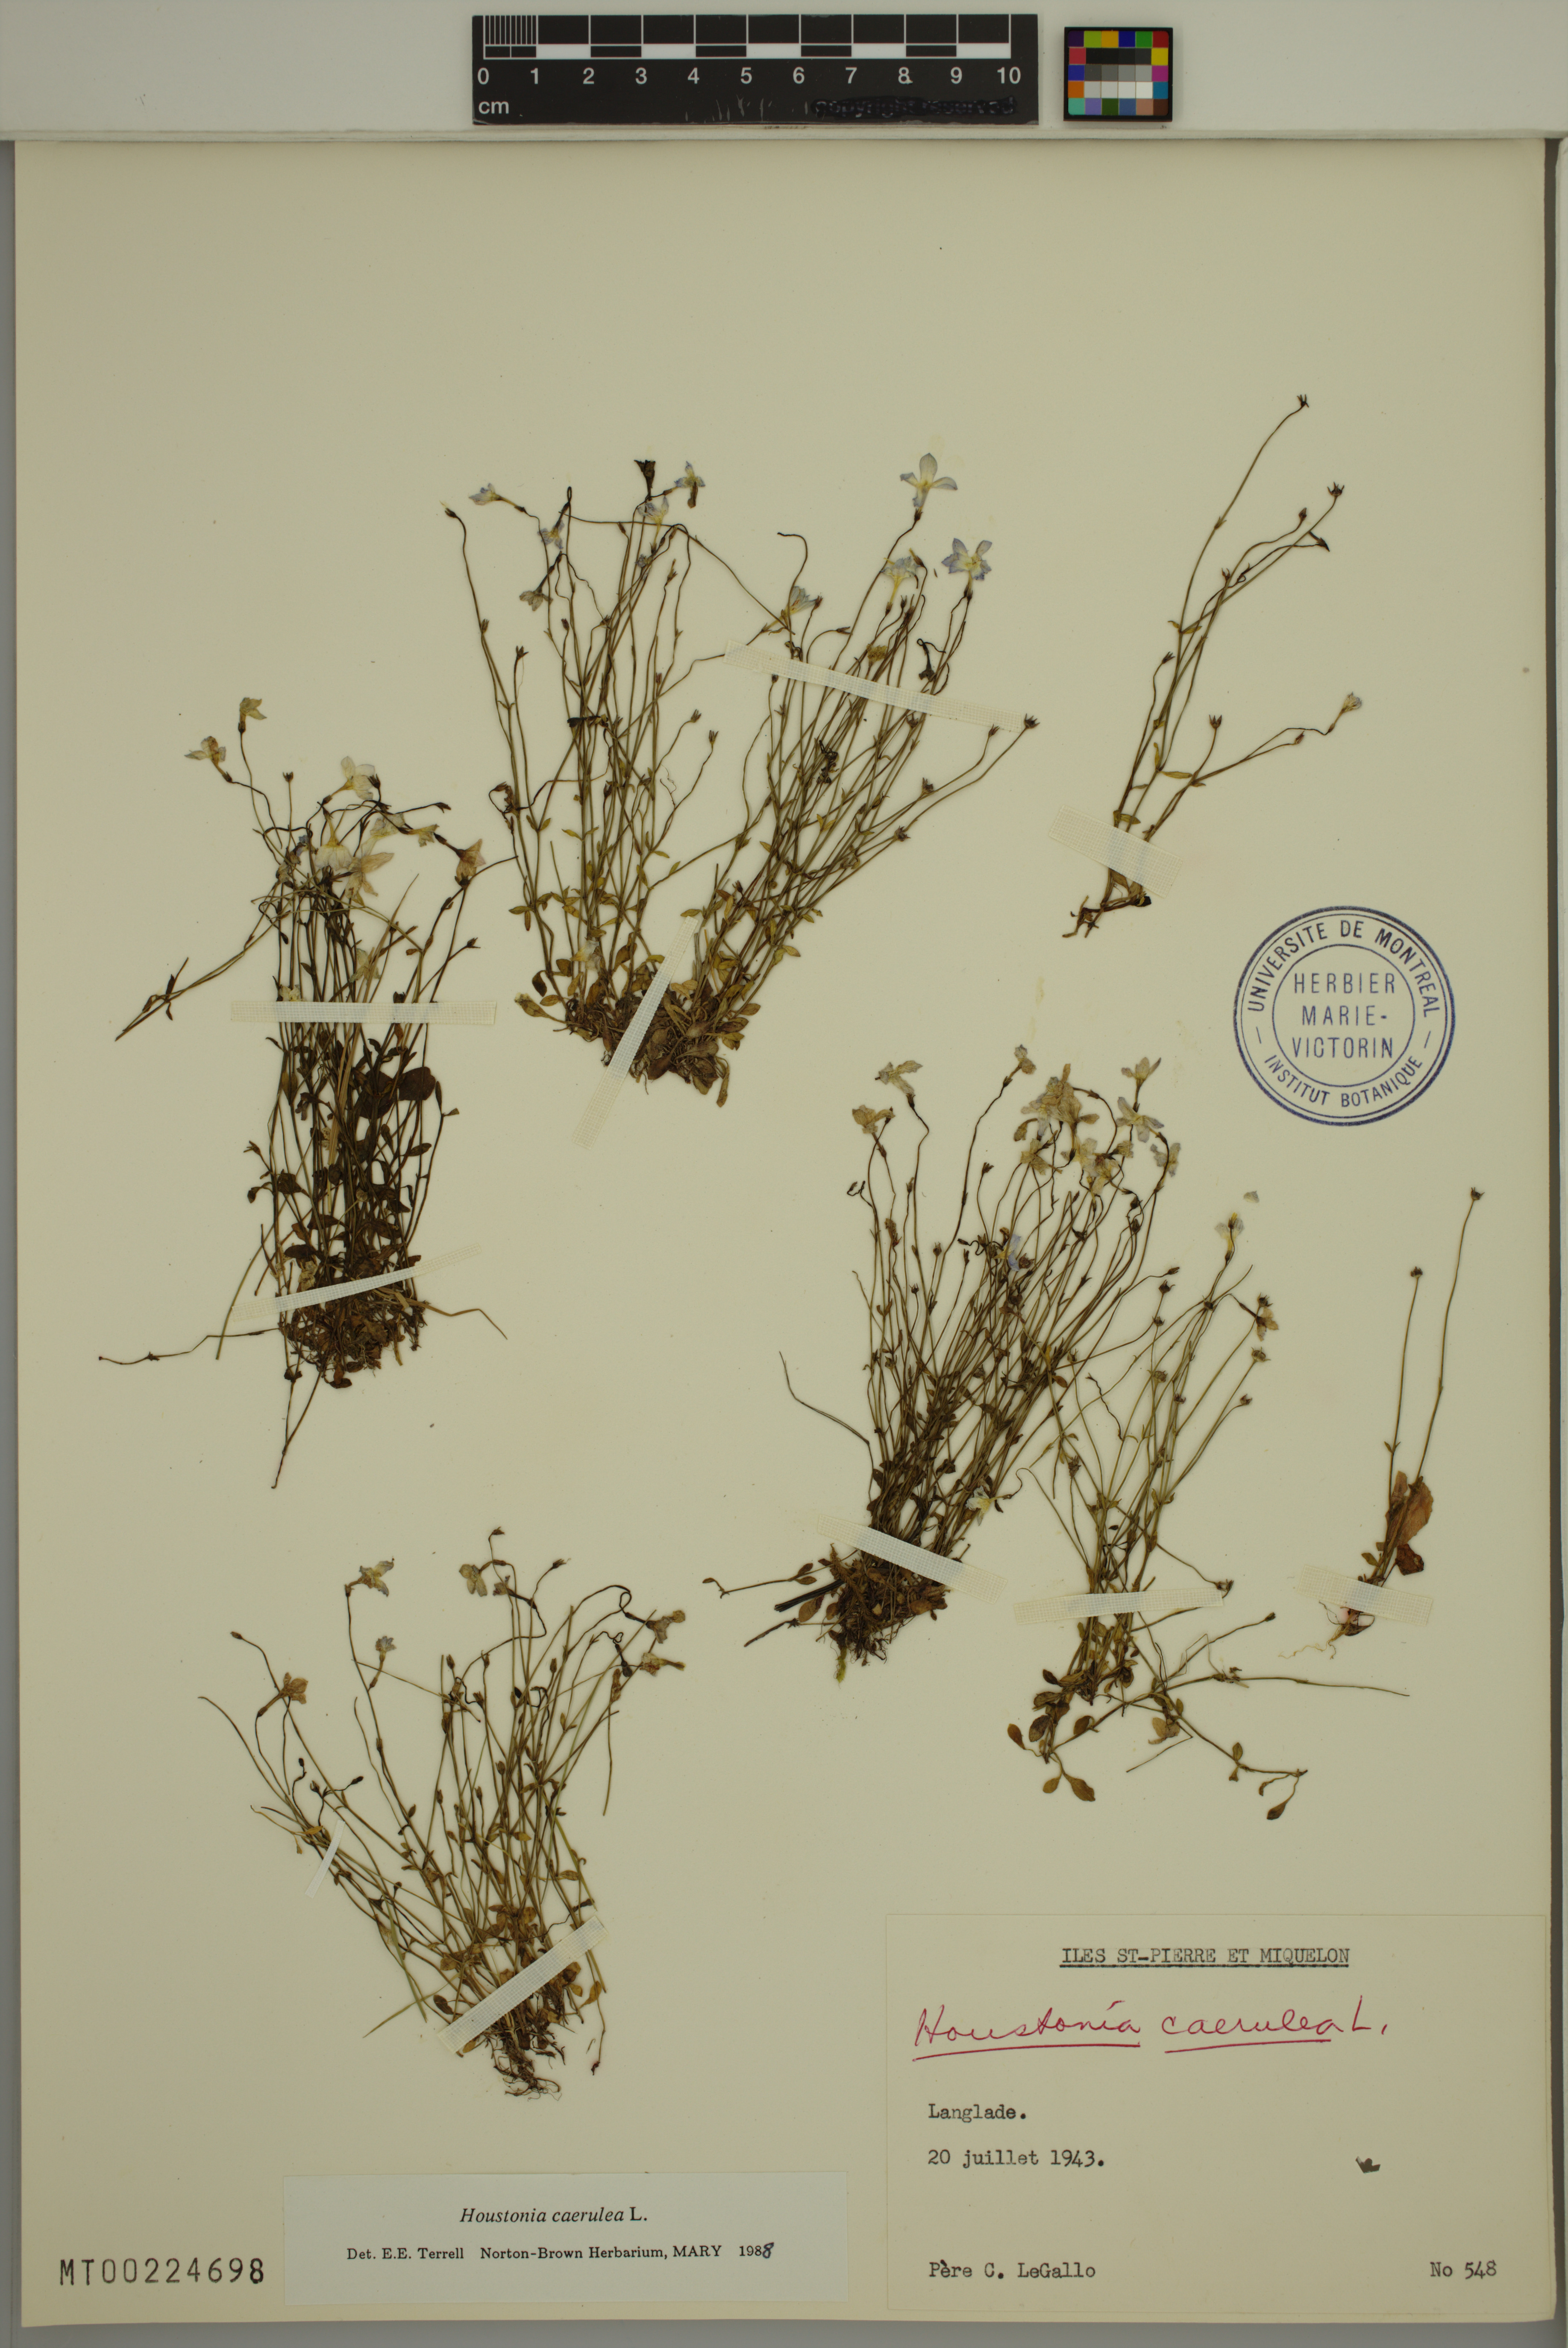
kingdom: Plantae
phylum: Tracheophyta
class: Magnoliopsida
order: Gentianales
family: Rubiaceae
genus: Houstonia
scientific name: Houstonia caerulea
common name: Bluets
